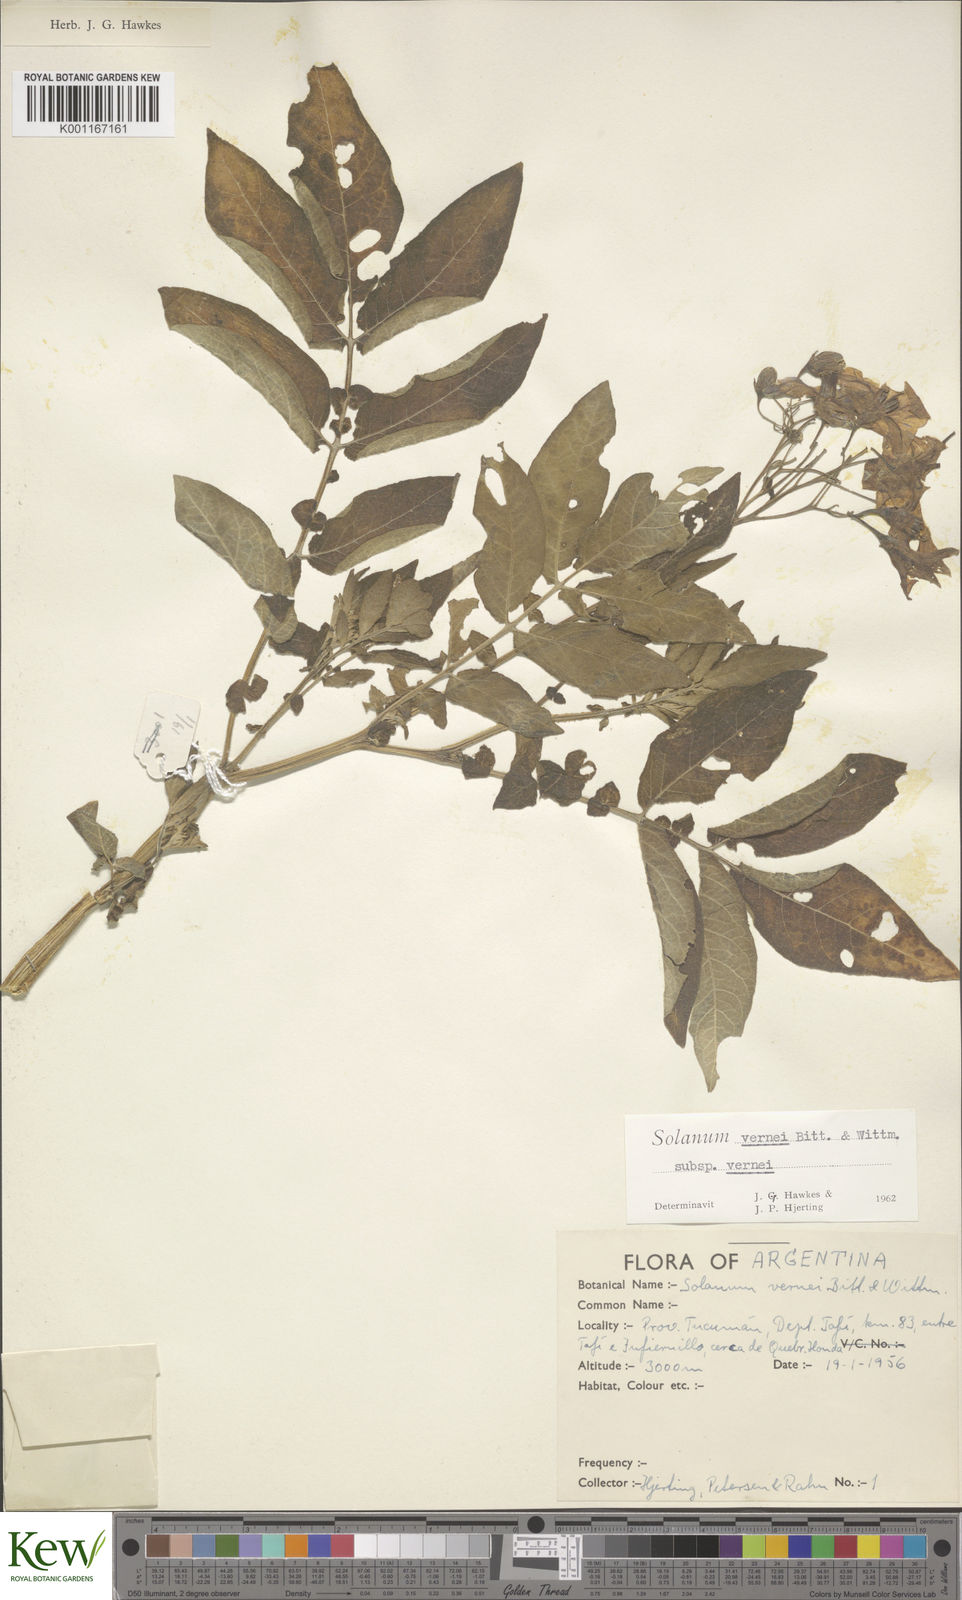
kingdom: Plantae
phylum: Tracheophyta
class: Magnoliopsida
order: Solanales
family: Solanaceae
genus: Solanum
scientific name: Solanum vernei
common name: Purple potato
